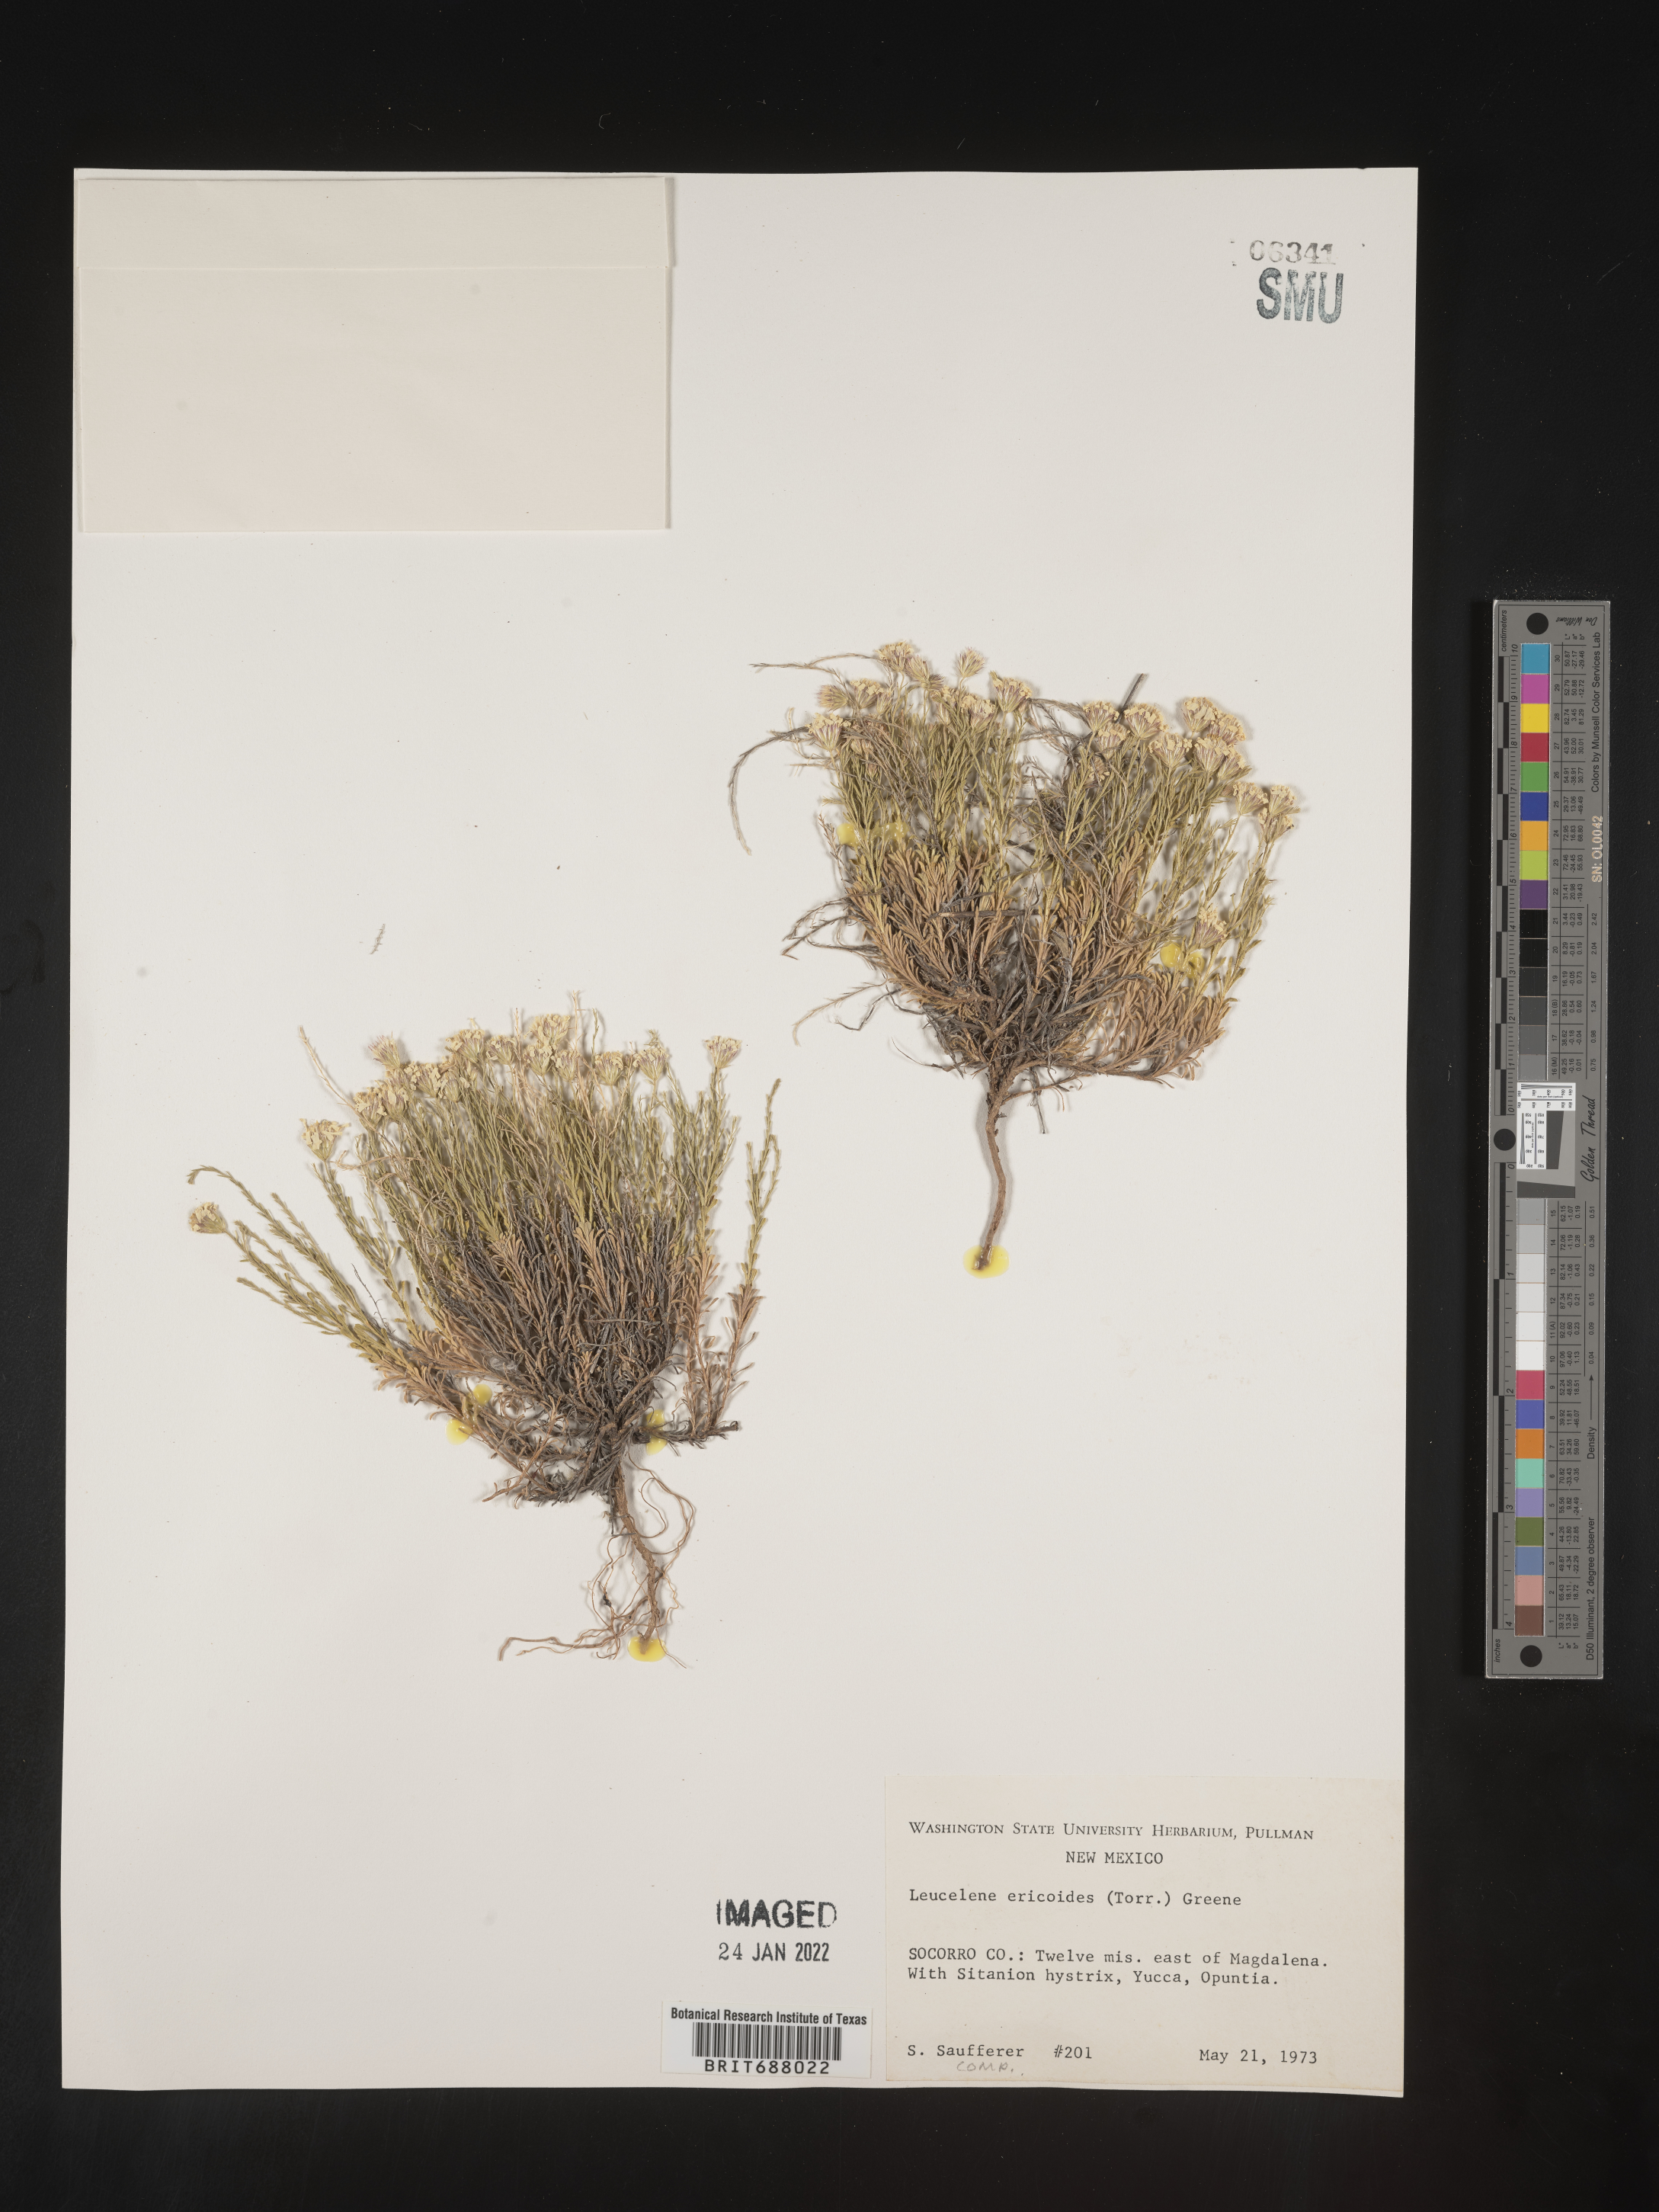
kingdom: Plantae
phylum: Tracheophyta
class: Magnoliopsida
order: Asterales
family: Asteraceae
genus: Chaetopappa
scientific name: Chaetopappa ericoides
